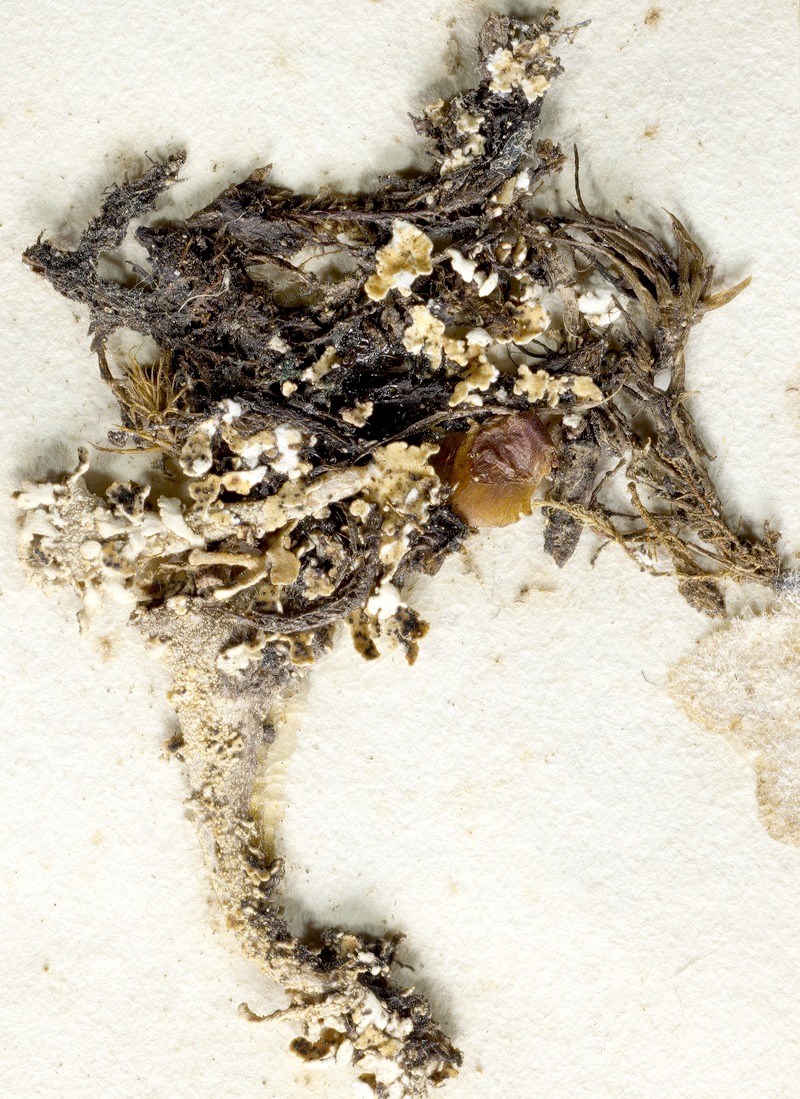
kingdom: Fungi
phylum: Ascomycota
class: Lecanoromycetes
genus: Bachmanniomyces
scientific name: Bachmanniomyces punctum
